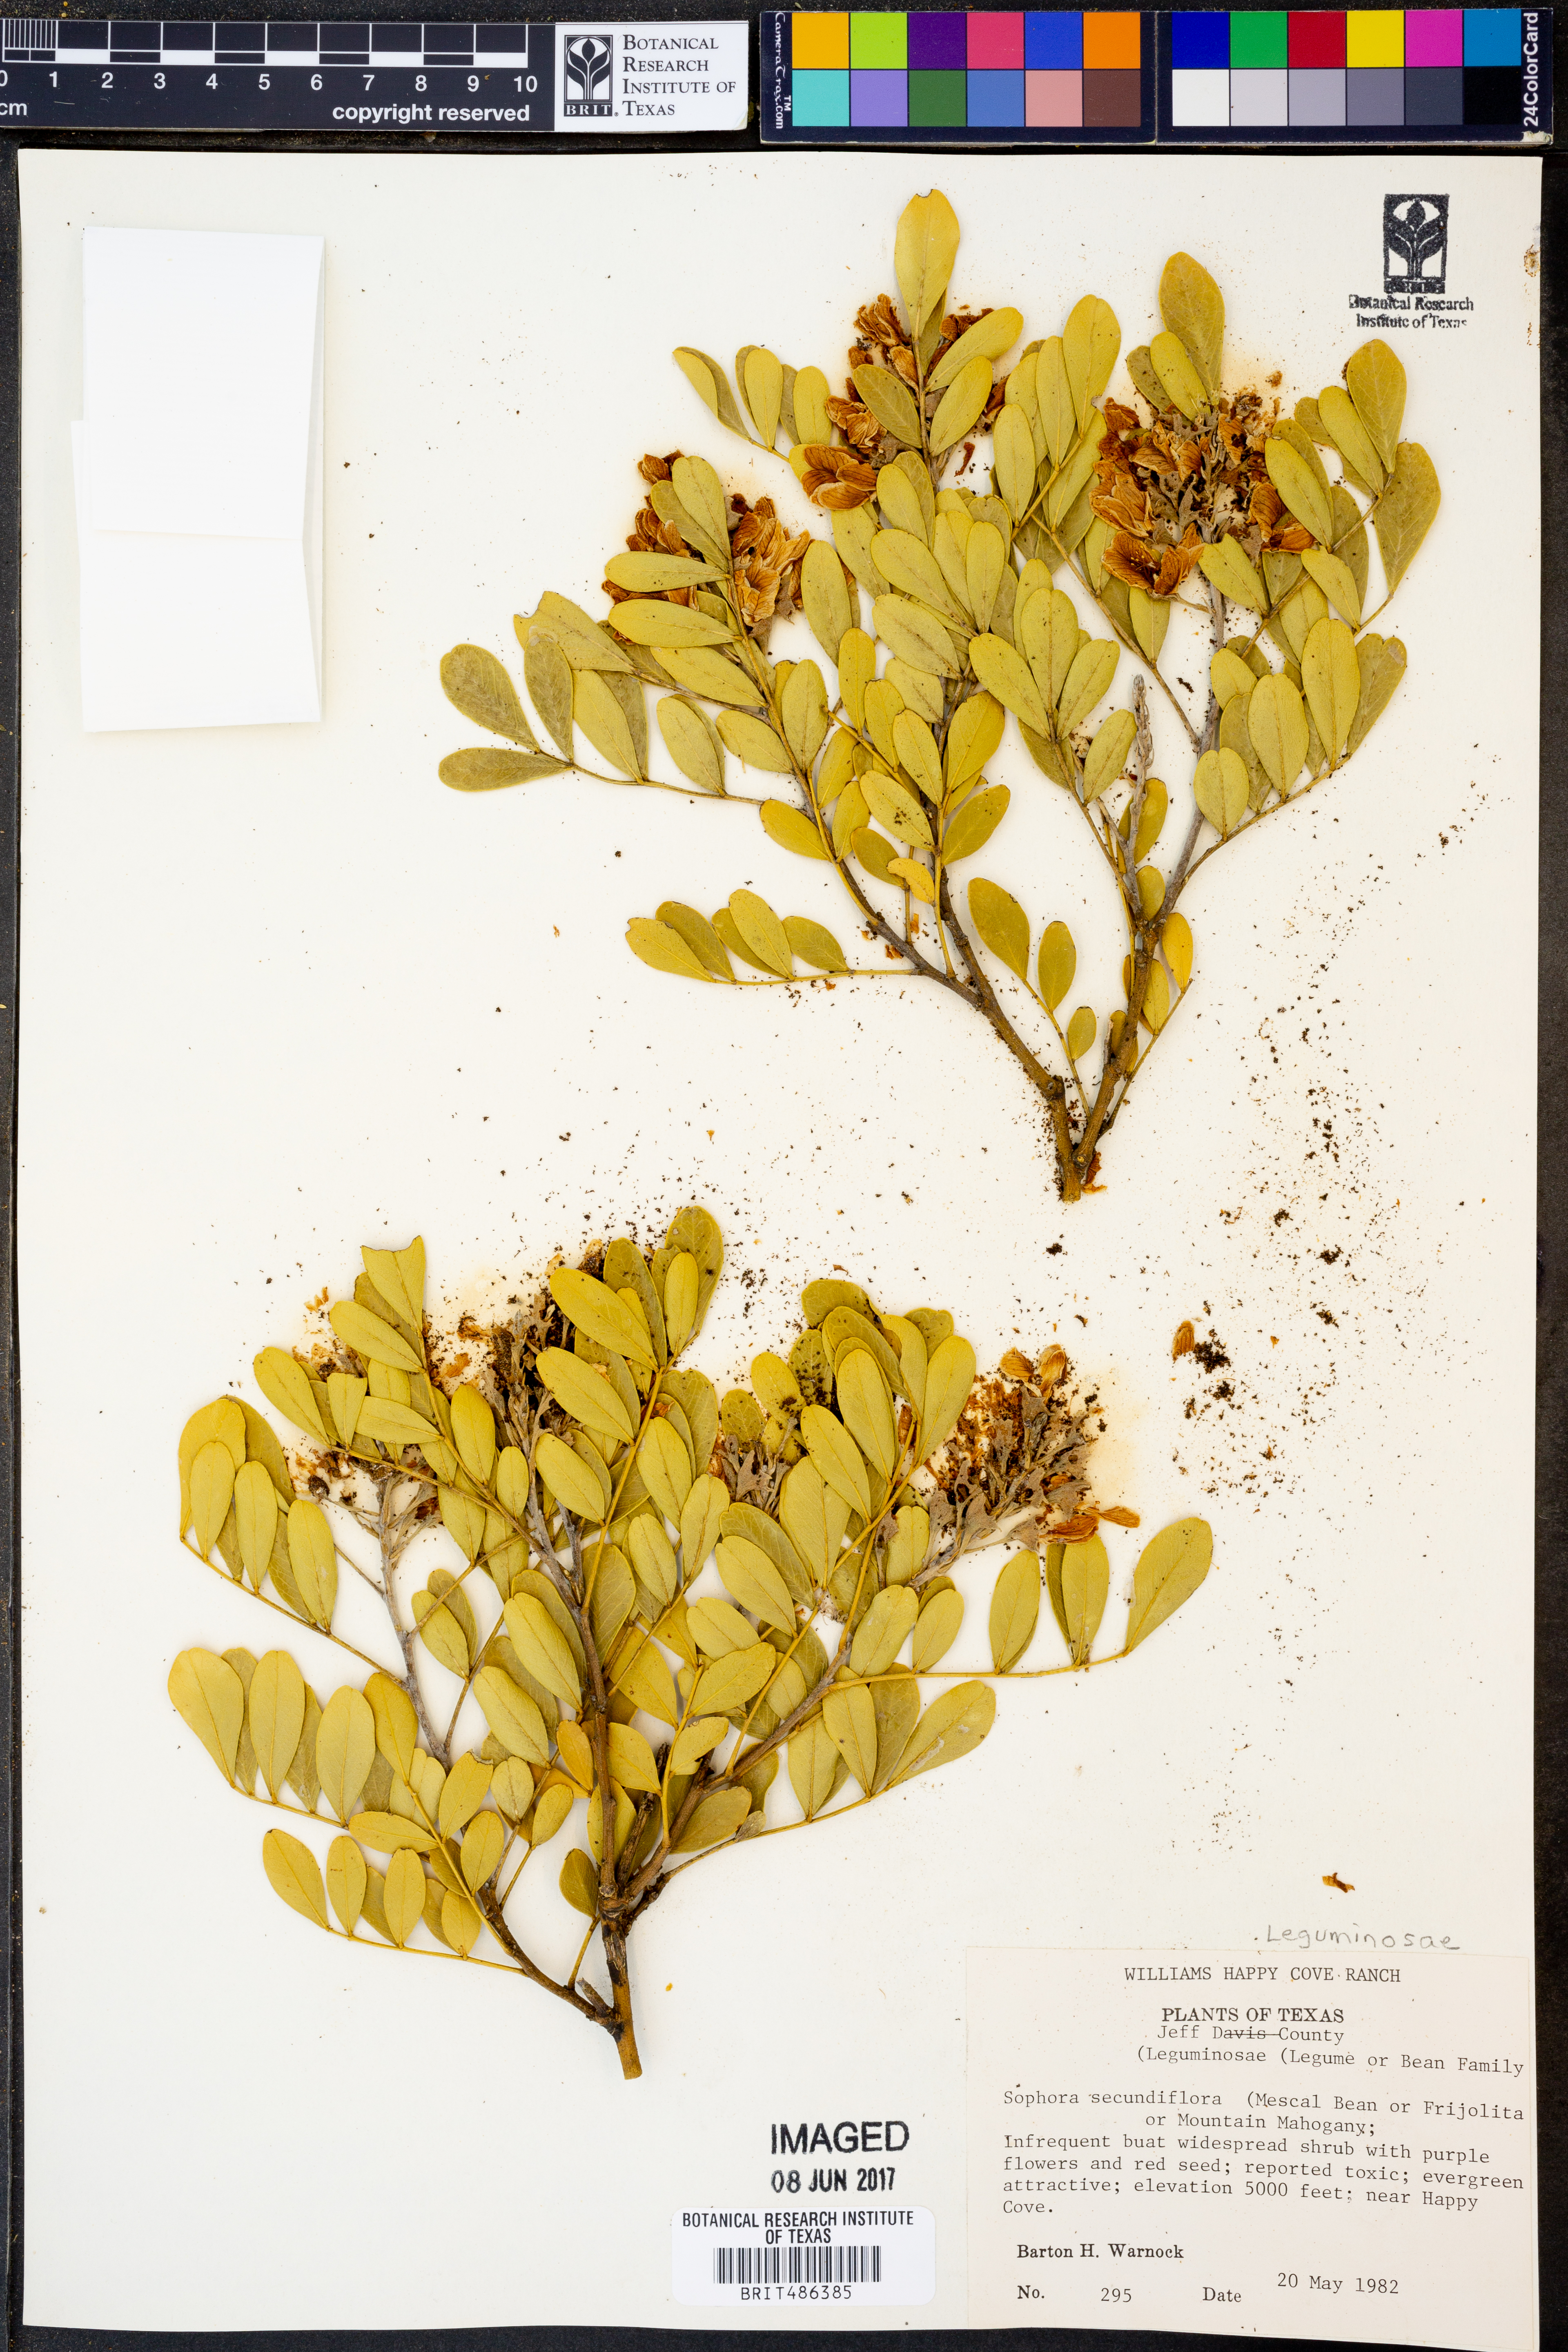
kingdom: Plantae
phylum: Tracheophyta
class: Magnoliopsida
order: Fabales
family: Fabaceae
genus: Dermatophyllum
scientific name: Dermatophyllum secundiflorum
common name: Texas-mountain-laurel
